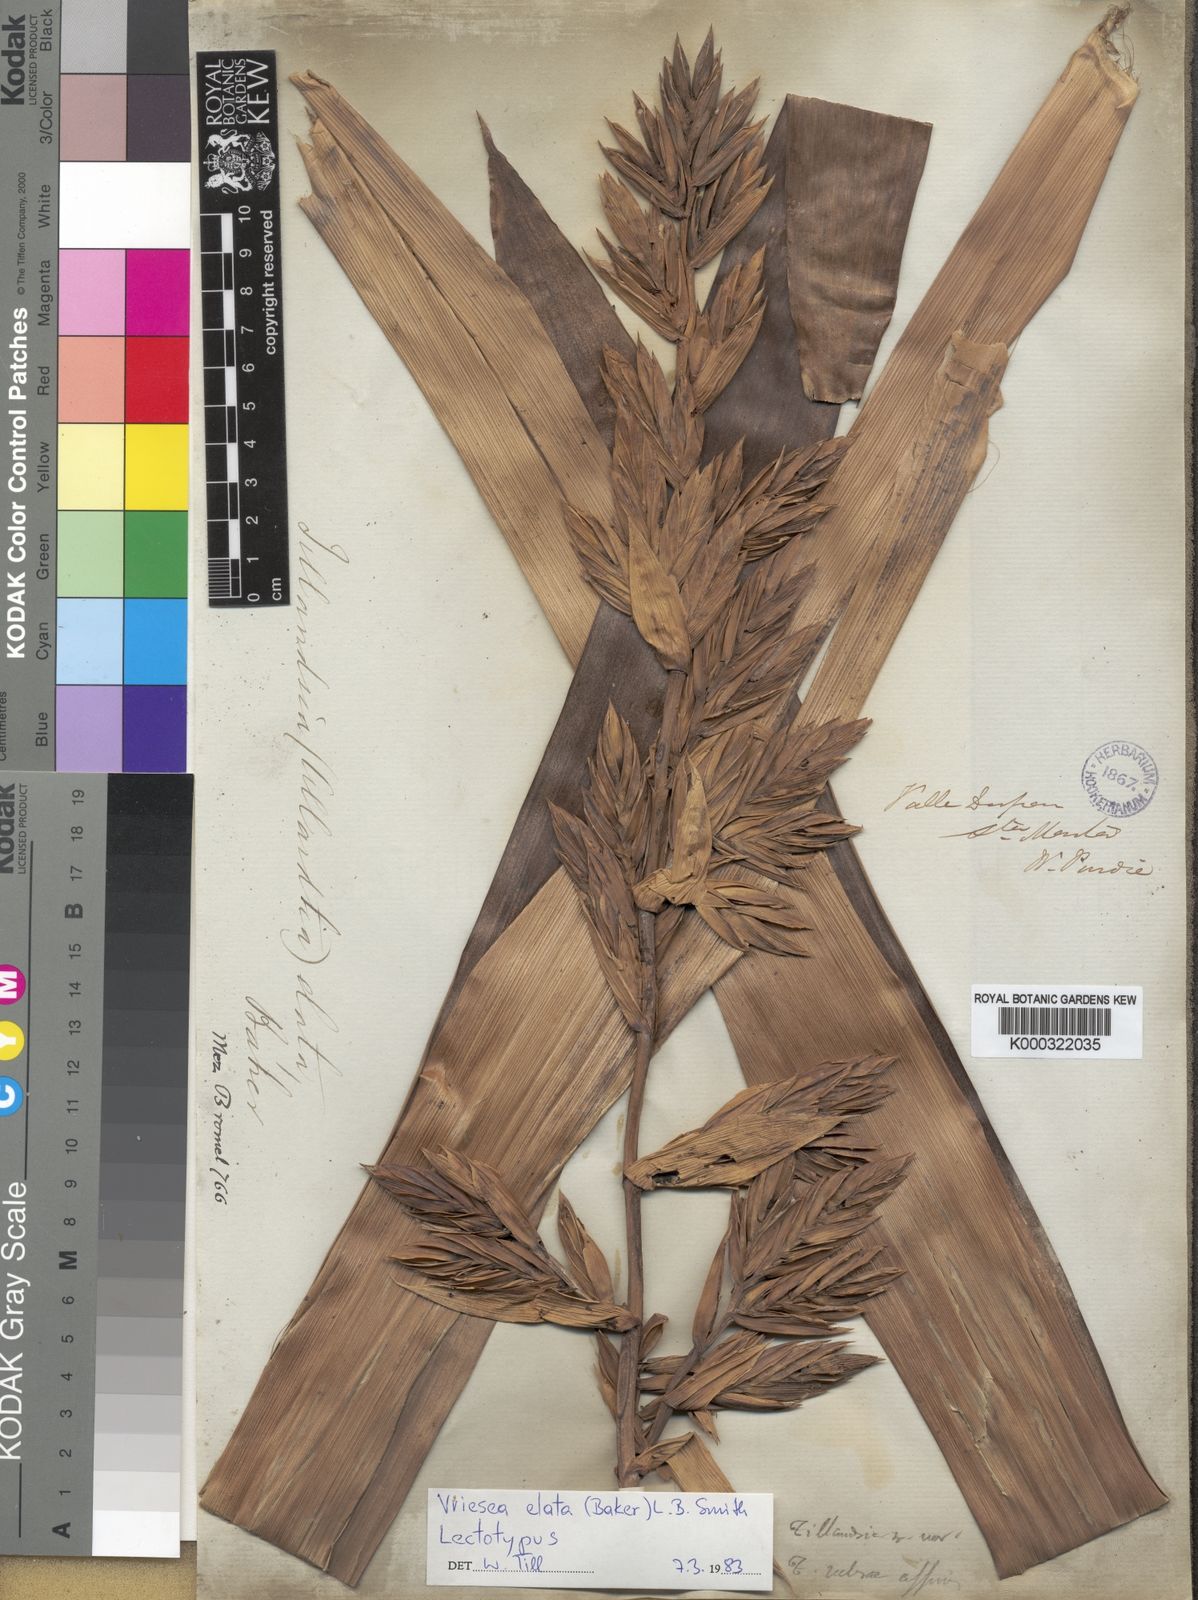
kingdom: Plantae
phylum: Tracheophyta
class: Liliopsida
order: Poales
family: Bromeliaceae
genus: Vriesea
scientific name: Vriesea elata
